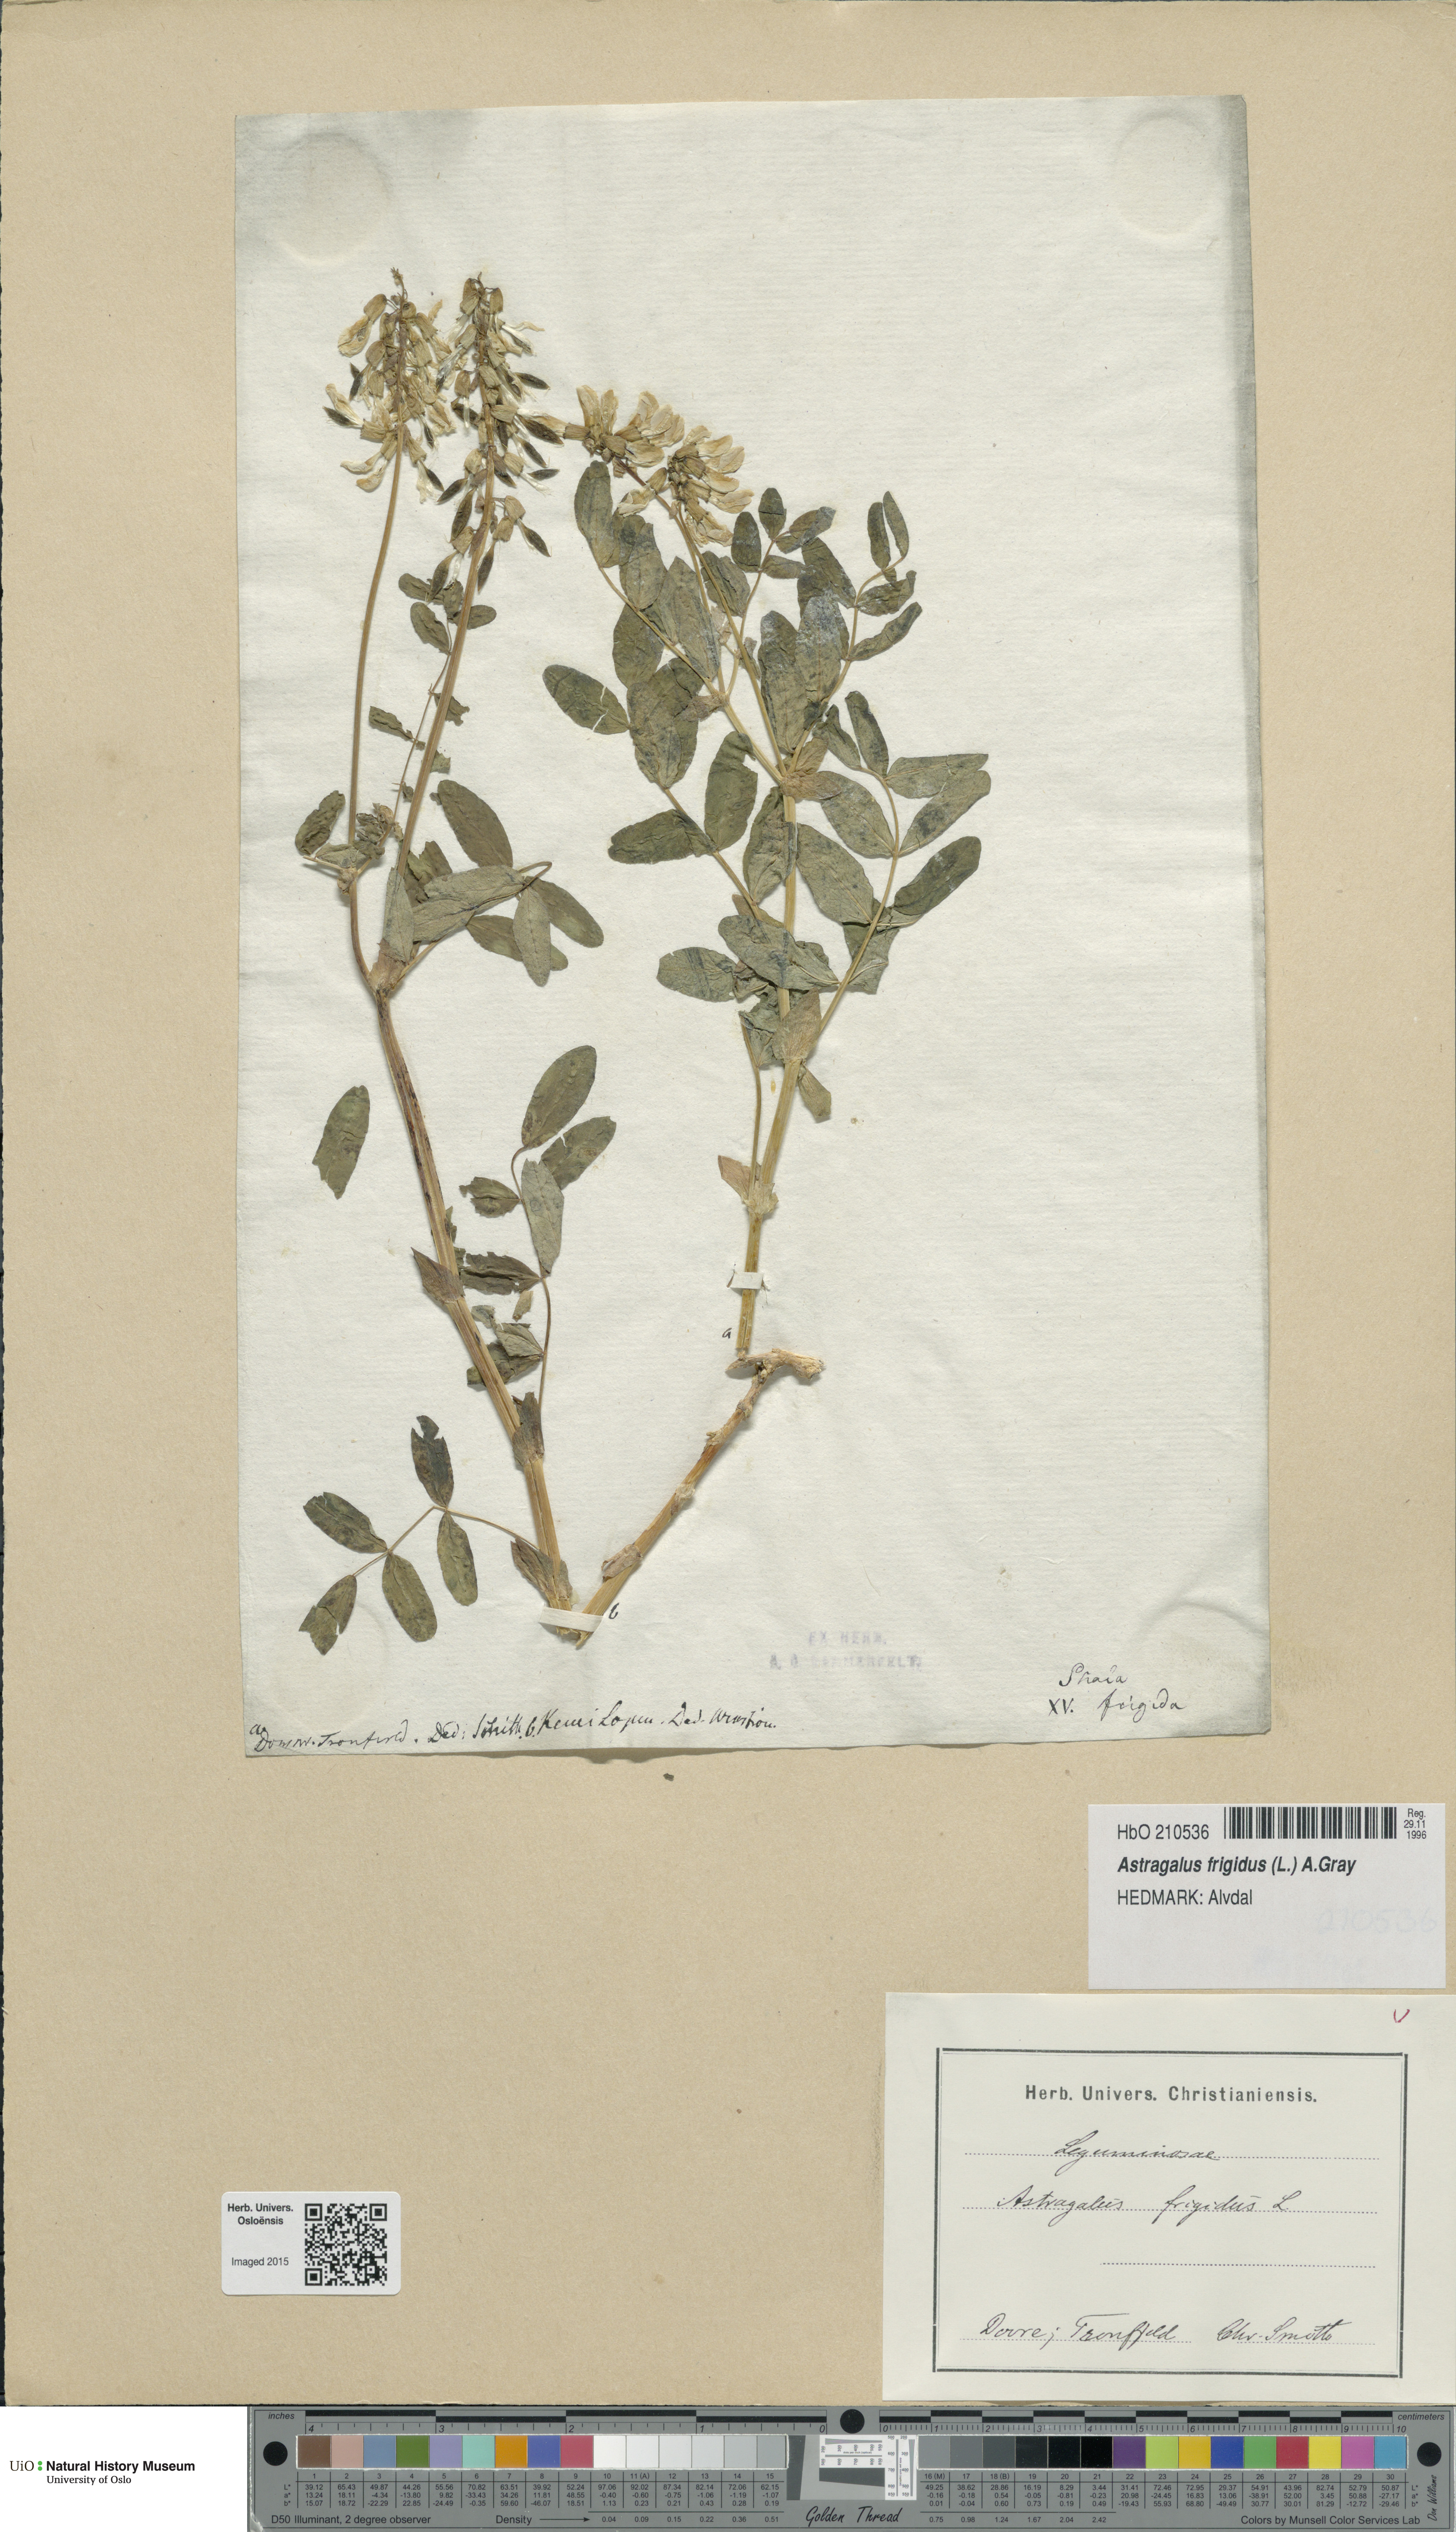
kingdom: Plantae
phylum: Tracheophyta
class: Magnoliopsida
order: Fabales
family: Fabaceae
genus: Astragalus
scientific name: Astragalus frigidus
